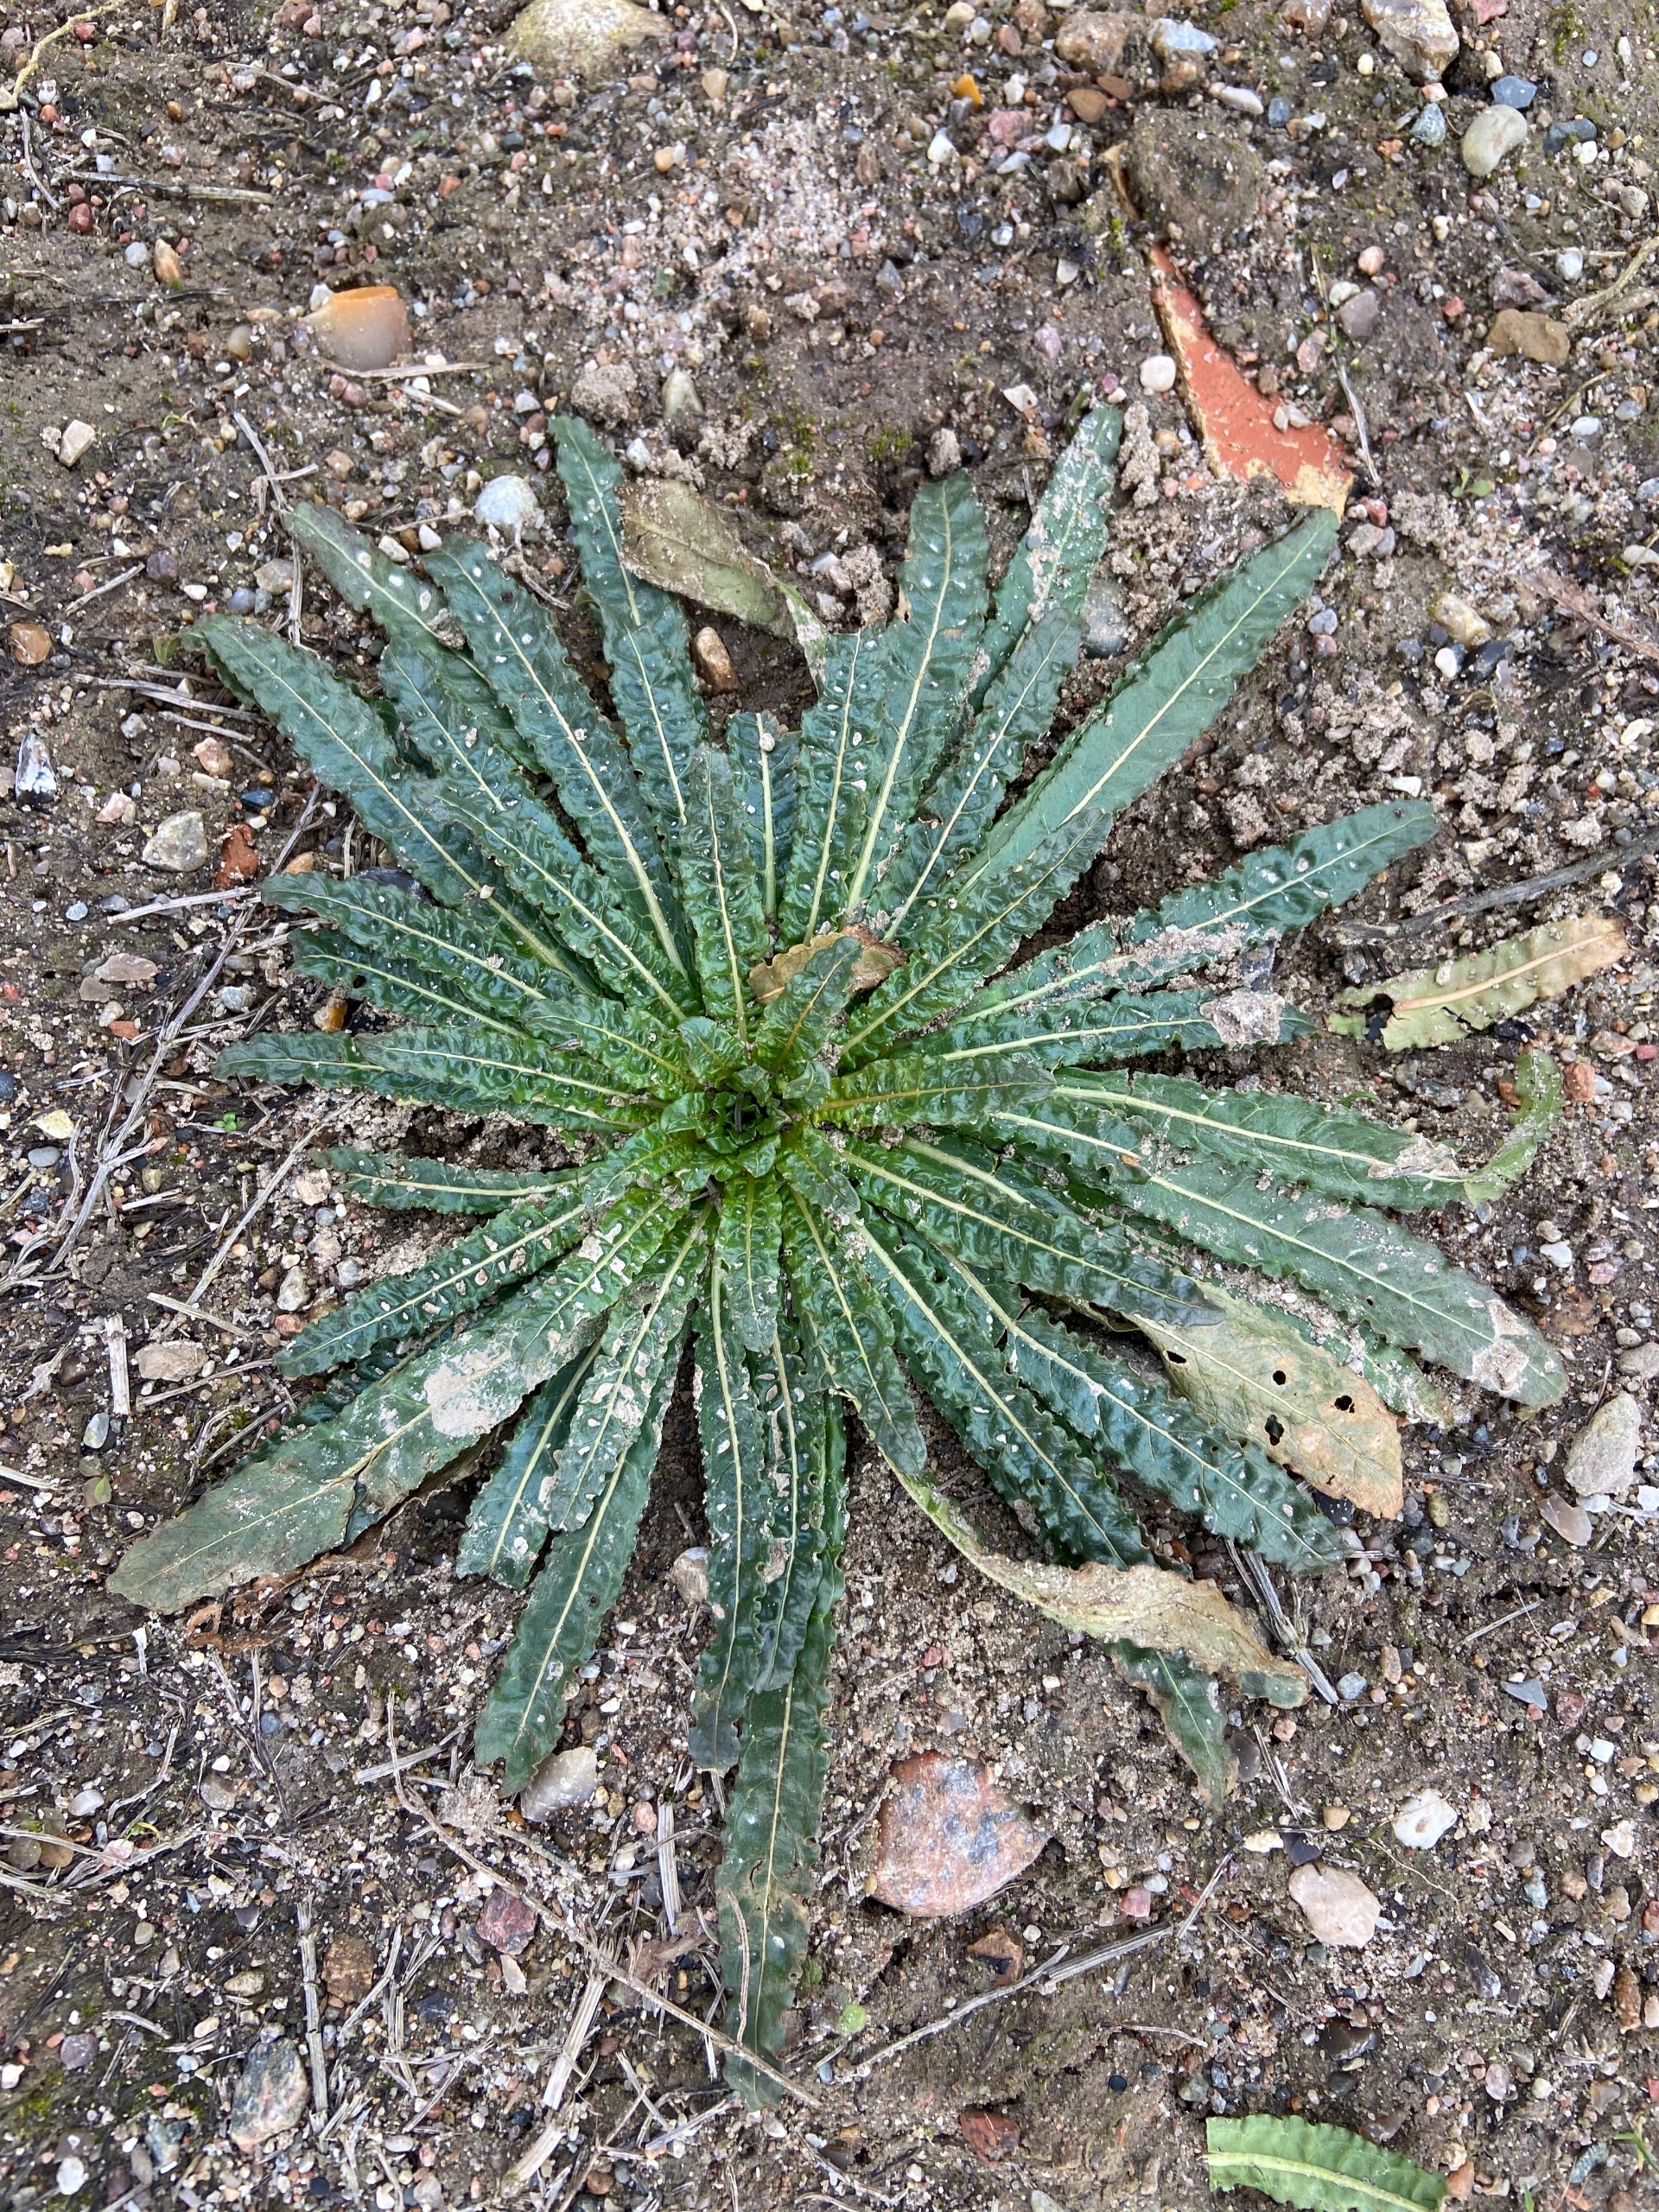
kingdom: Plantae
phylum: Tracheophyta
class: Magnoliopsida
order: Brassicales
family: Resedaceae
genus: Reseda
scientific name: Reseda luteola
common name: Farve-reseda
